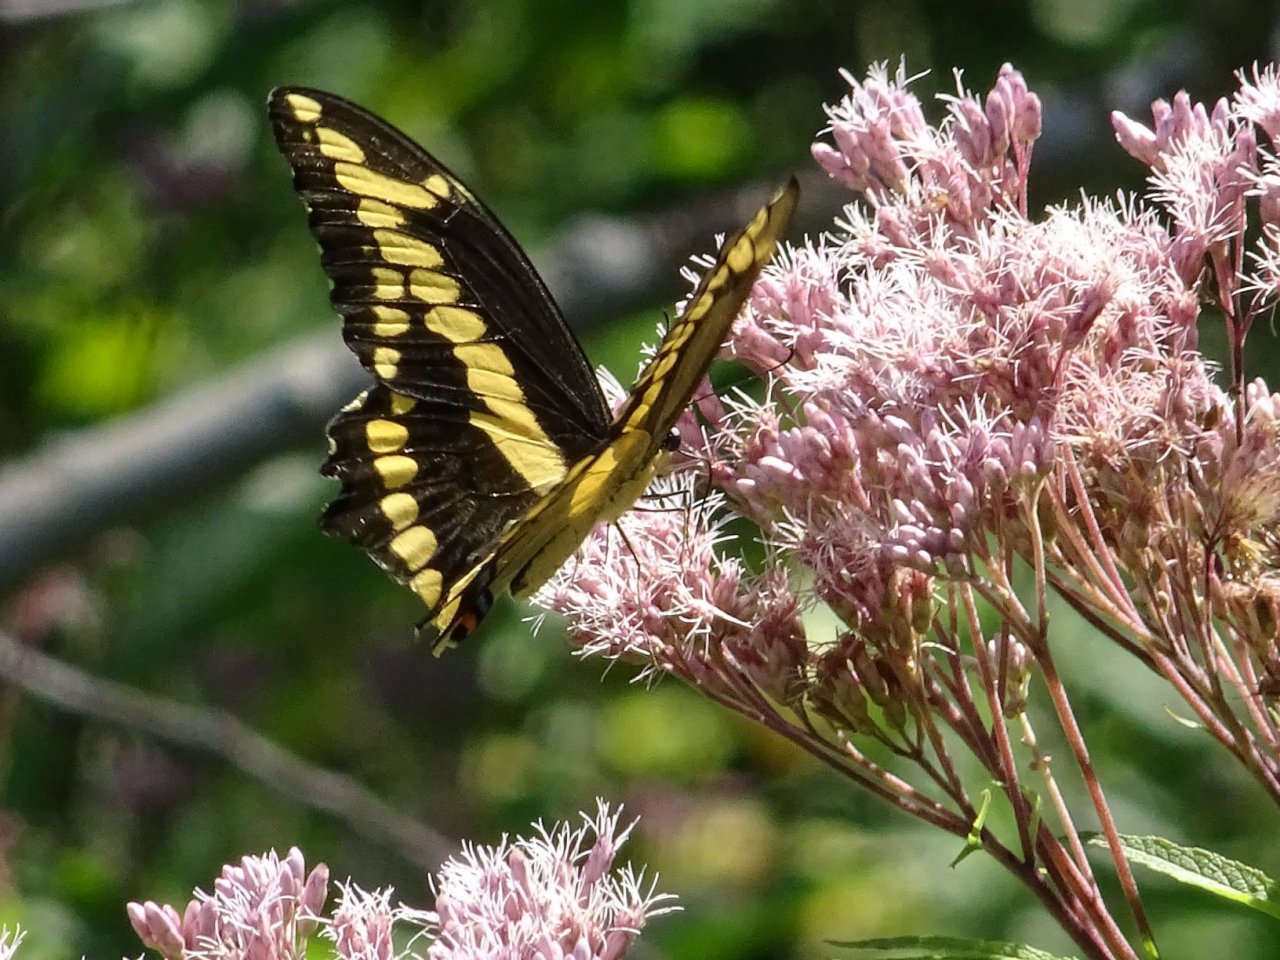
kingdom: Animalia
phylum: Arthropoda
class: Insecta
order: Lepidoptera
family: Papilionidae
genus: Papilio
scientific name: Papilio cresphontes
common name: Eastern Giant Swallowtail
